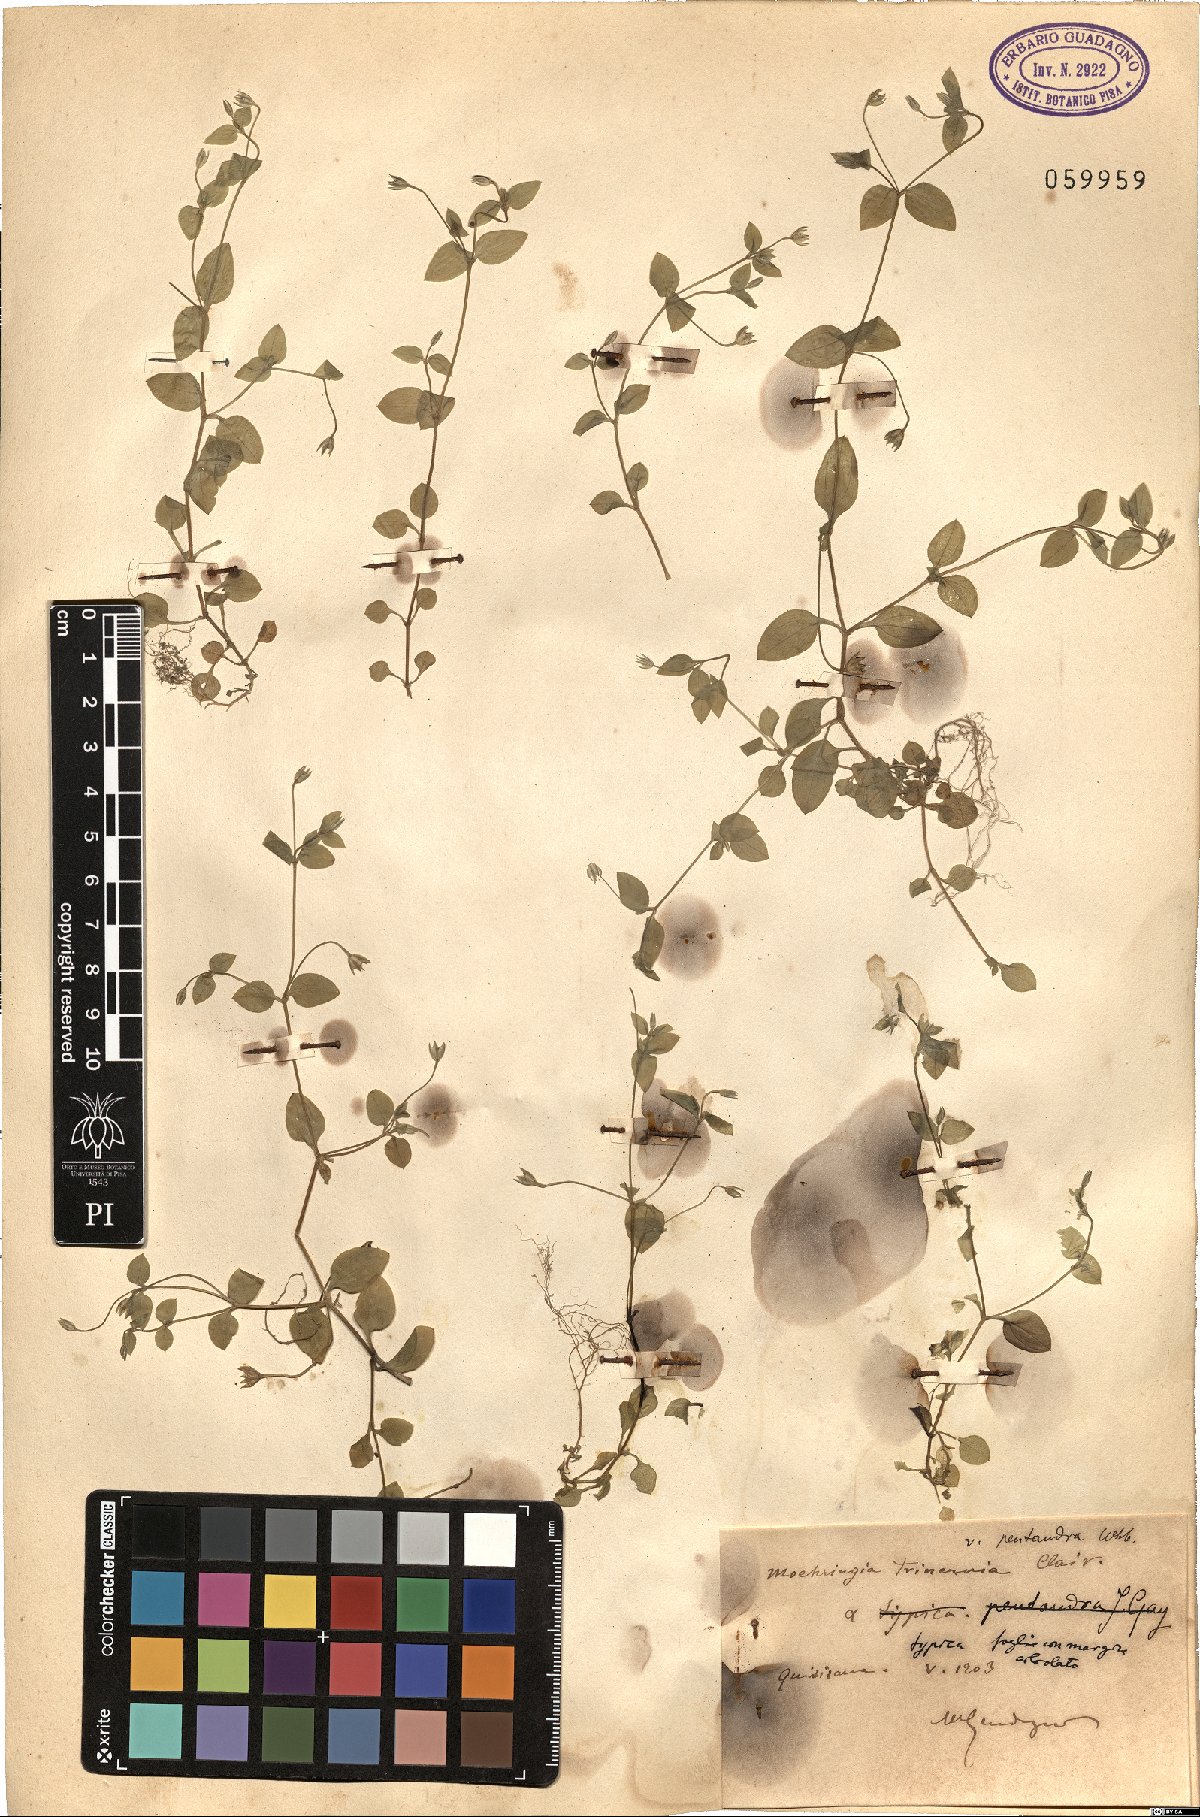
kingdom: Plantae
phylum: Tracheophyta
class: Magnoliopsida
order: Caryophyllales
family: Caryophyllaceae
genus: Moehringia
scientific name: Moehringia trinervia
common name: Three-nerved sandwort
